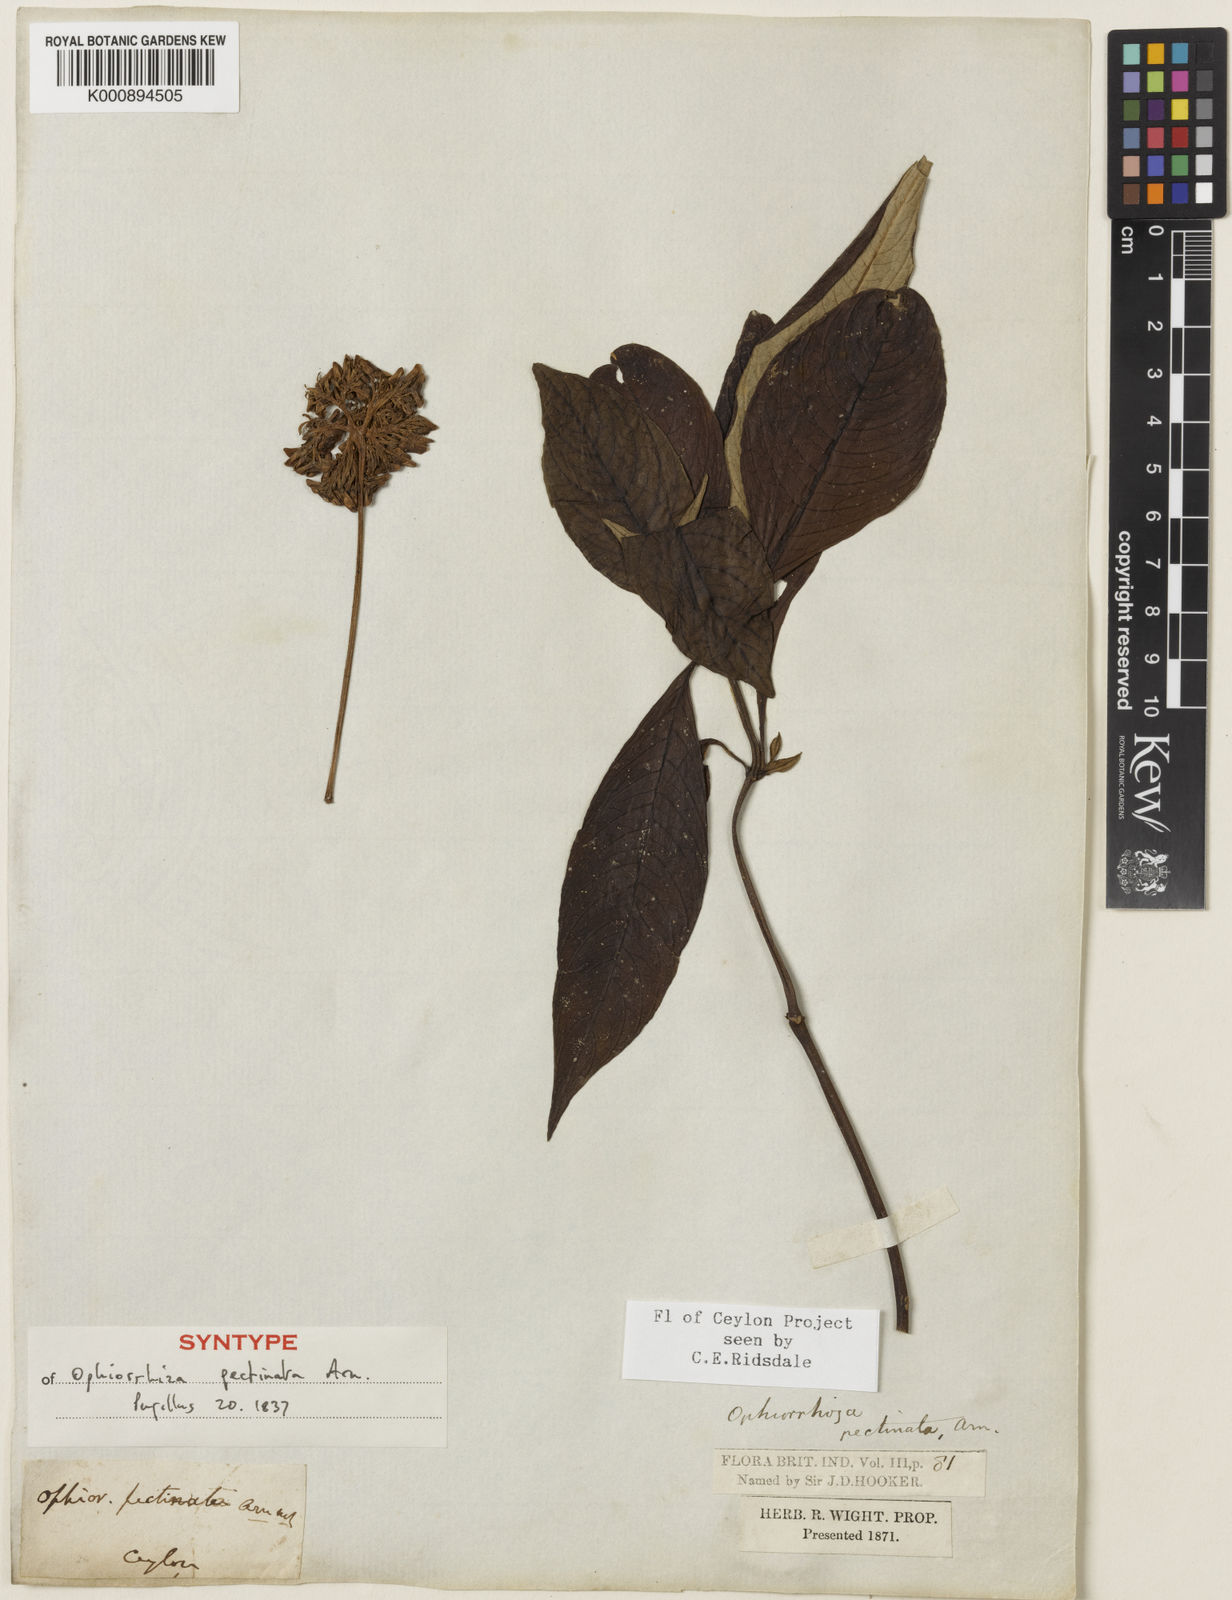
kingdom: Plantae
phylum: Tracheophyta
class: Magnoliopsida
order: Gentianales
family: Rubiaceae
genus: Ophiorrhiza
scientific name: Ophiorrhiza pectinata
